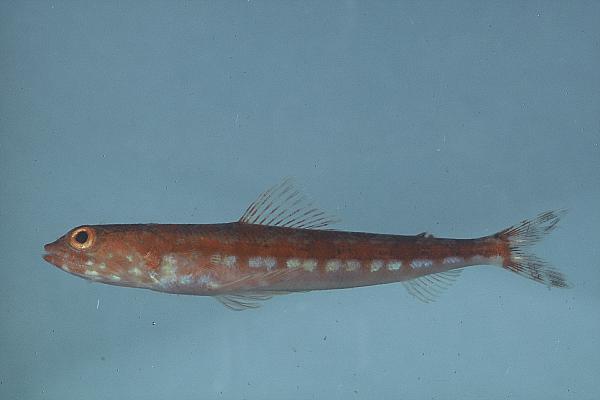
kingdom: Animalia
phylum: Chordata
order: Aulopiformes
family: Synodontidae
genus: Synodus
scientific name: Synodus variegatus
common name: Variegated lizardfish
